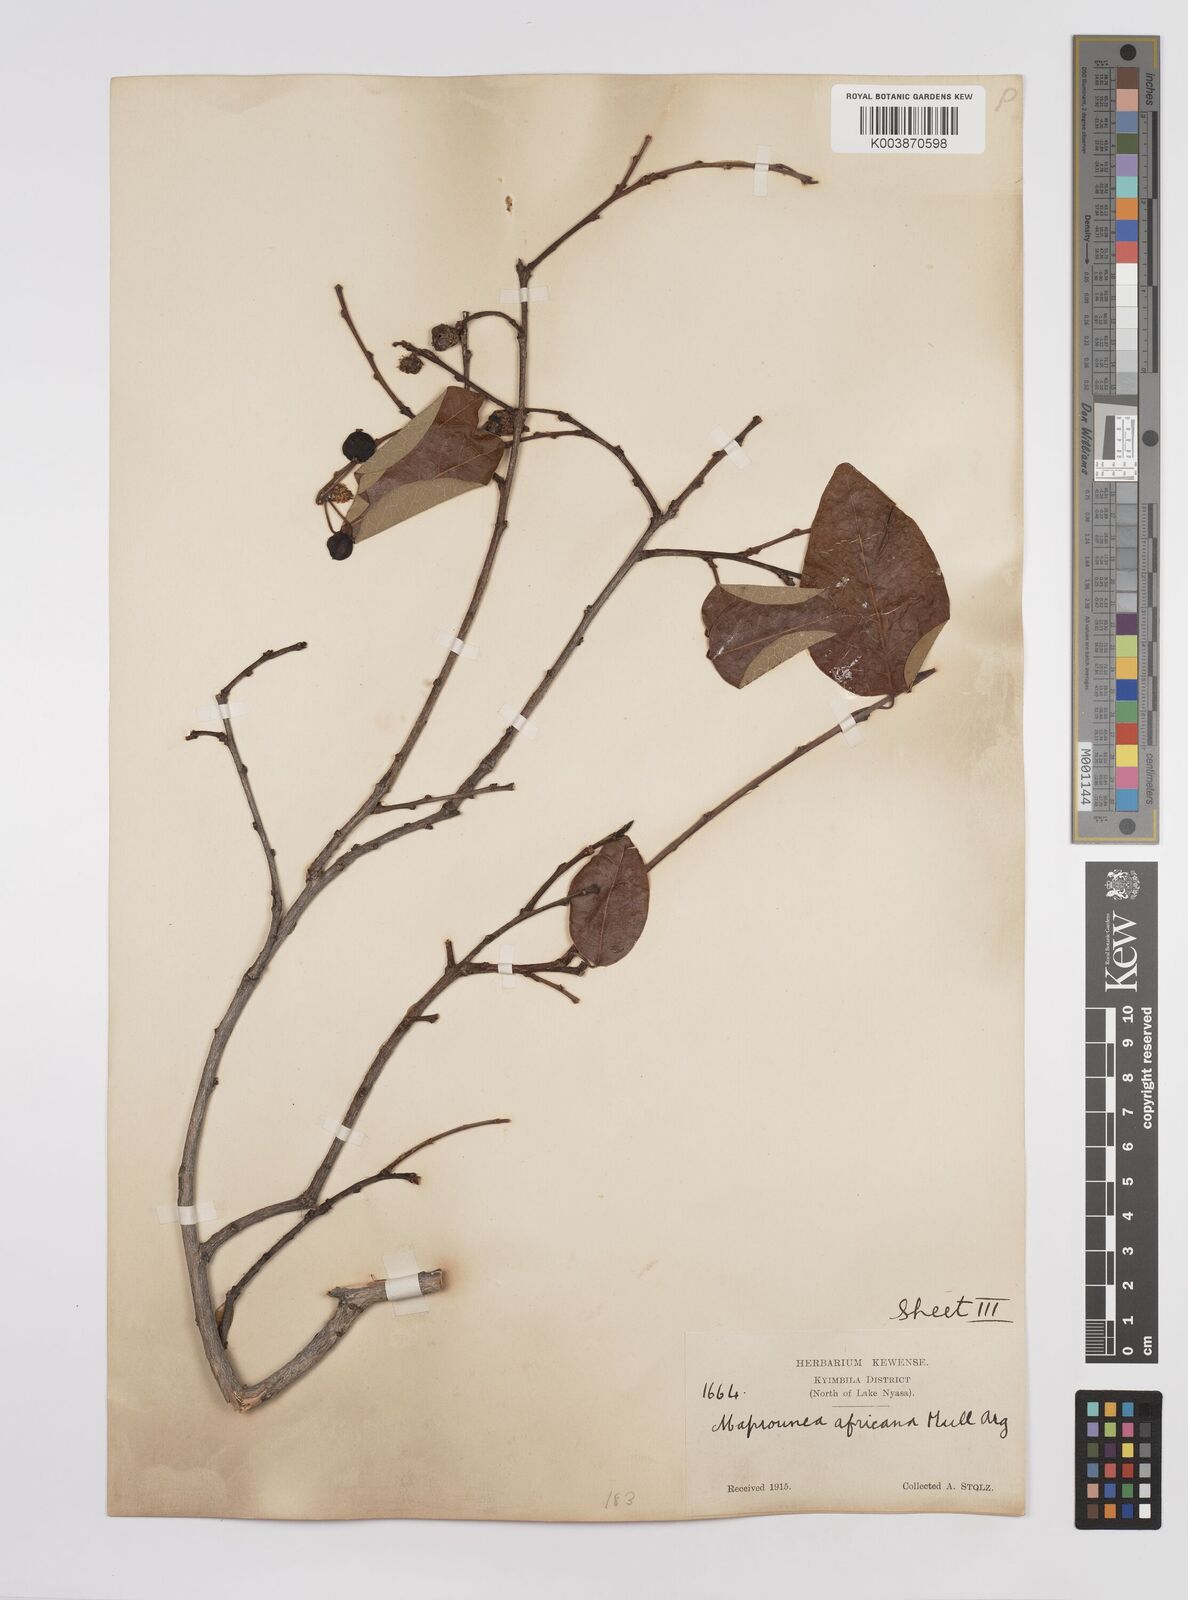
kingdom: Plantae
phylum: Tracheophyta
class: Magnoliopsida
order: Malpighiales
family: Euphorbiaceae
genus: Maprounea
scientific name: Maprounea africana
